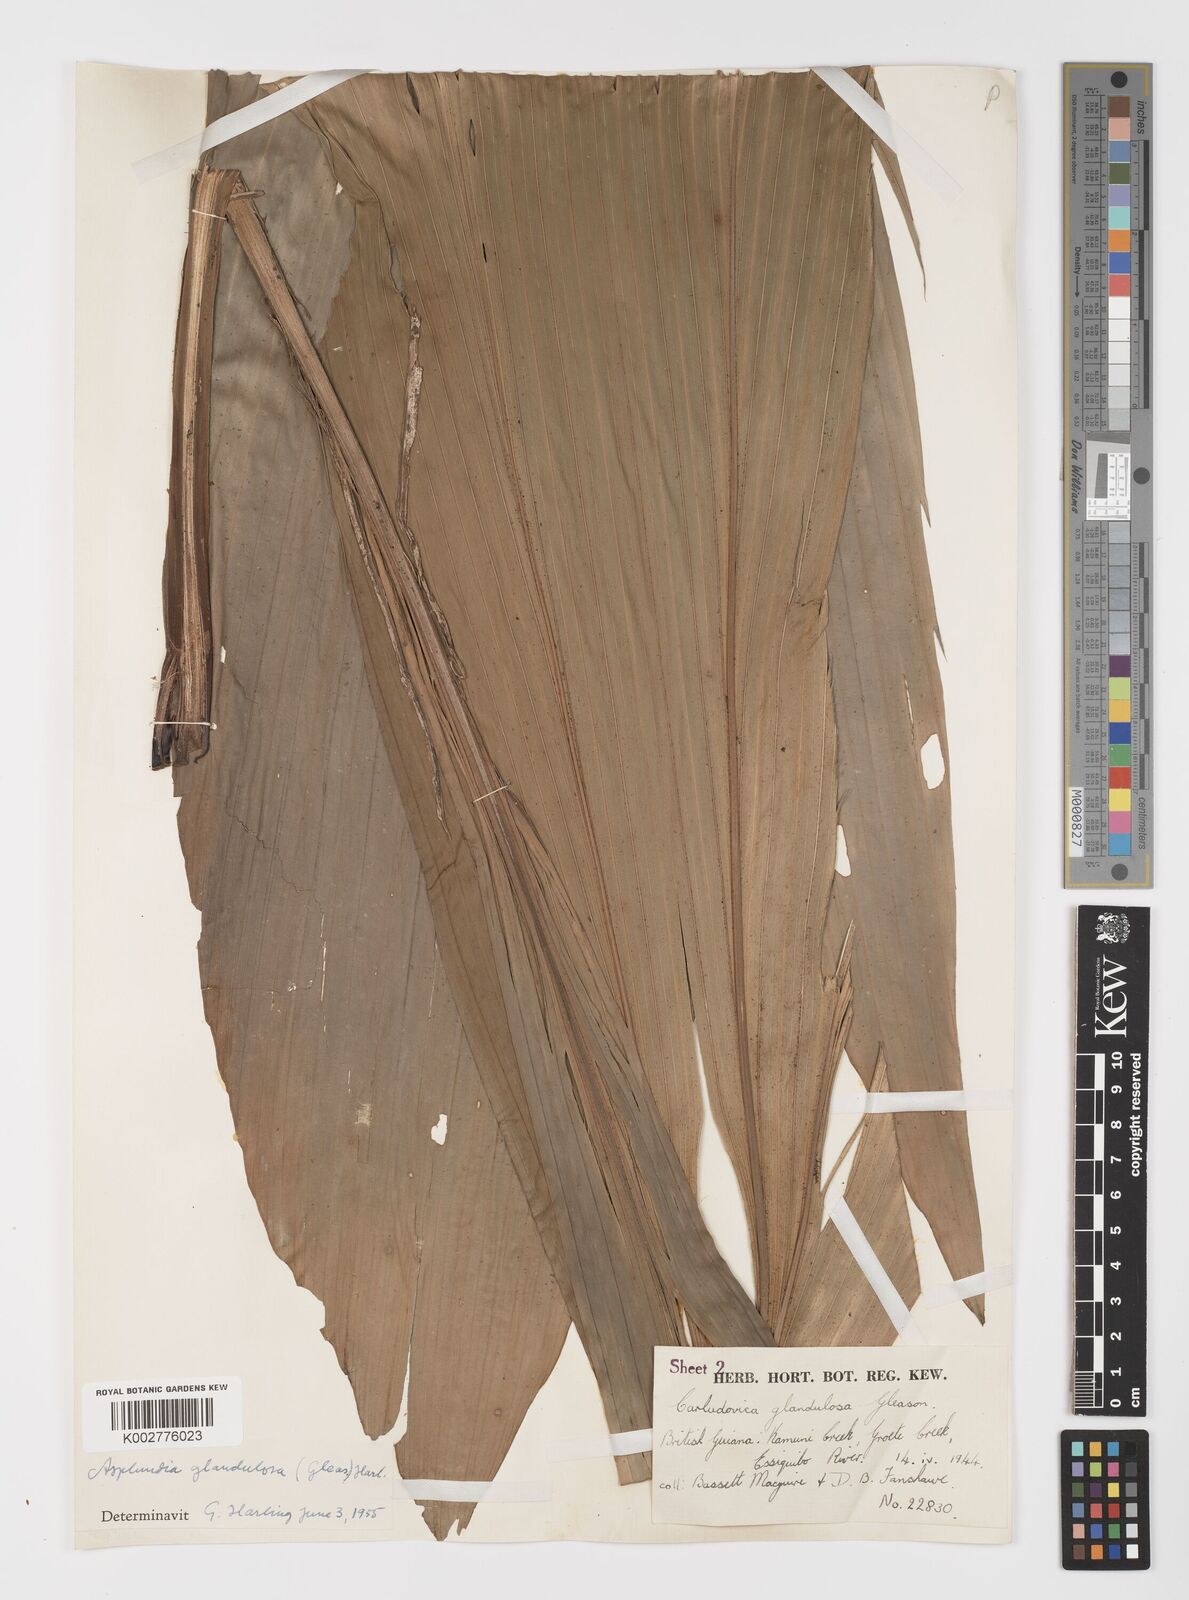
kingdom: Plantae
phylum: Tracheophyta
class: Liliopsida
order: Pandanales
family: Cyclanthaceae
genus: Asplundia
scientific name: Asplundia glandulosa
